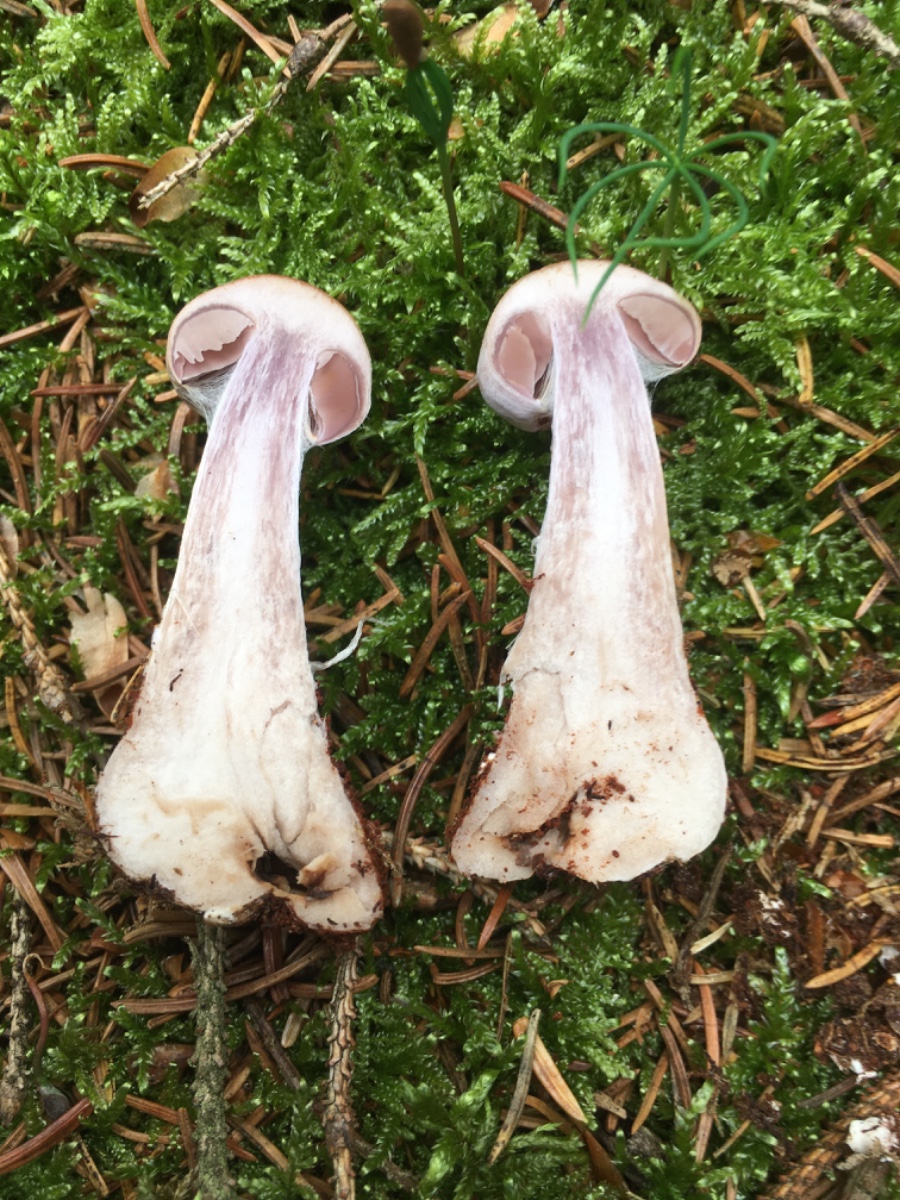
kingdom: Fungi
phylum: Basidiomycota
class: Agaricomycetes
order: Agaricales
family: Cortinariaceae
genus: Cortinarius
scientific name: Cortinarius
